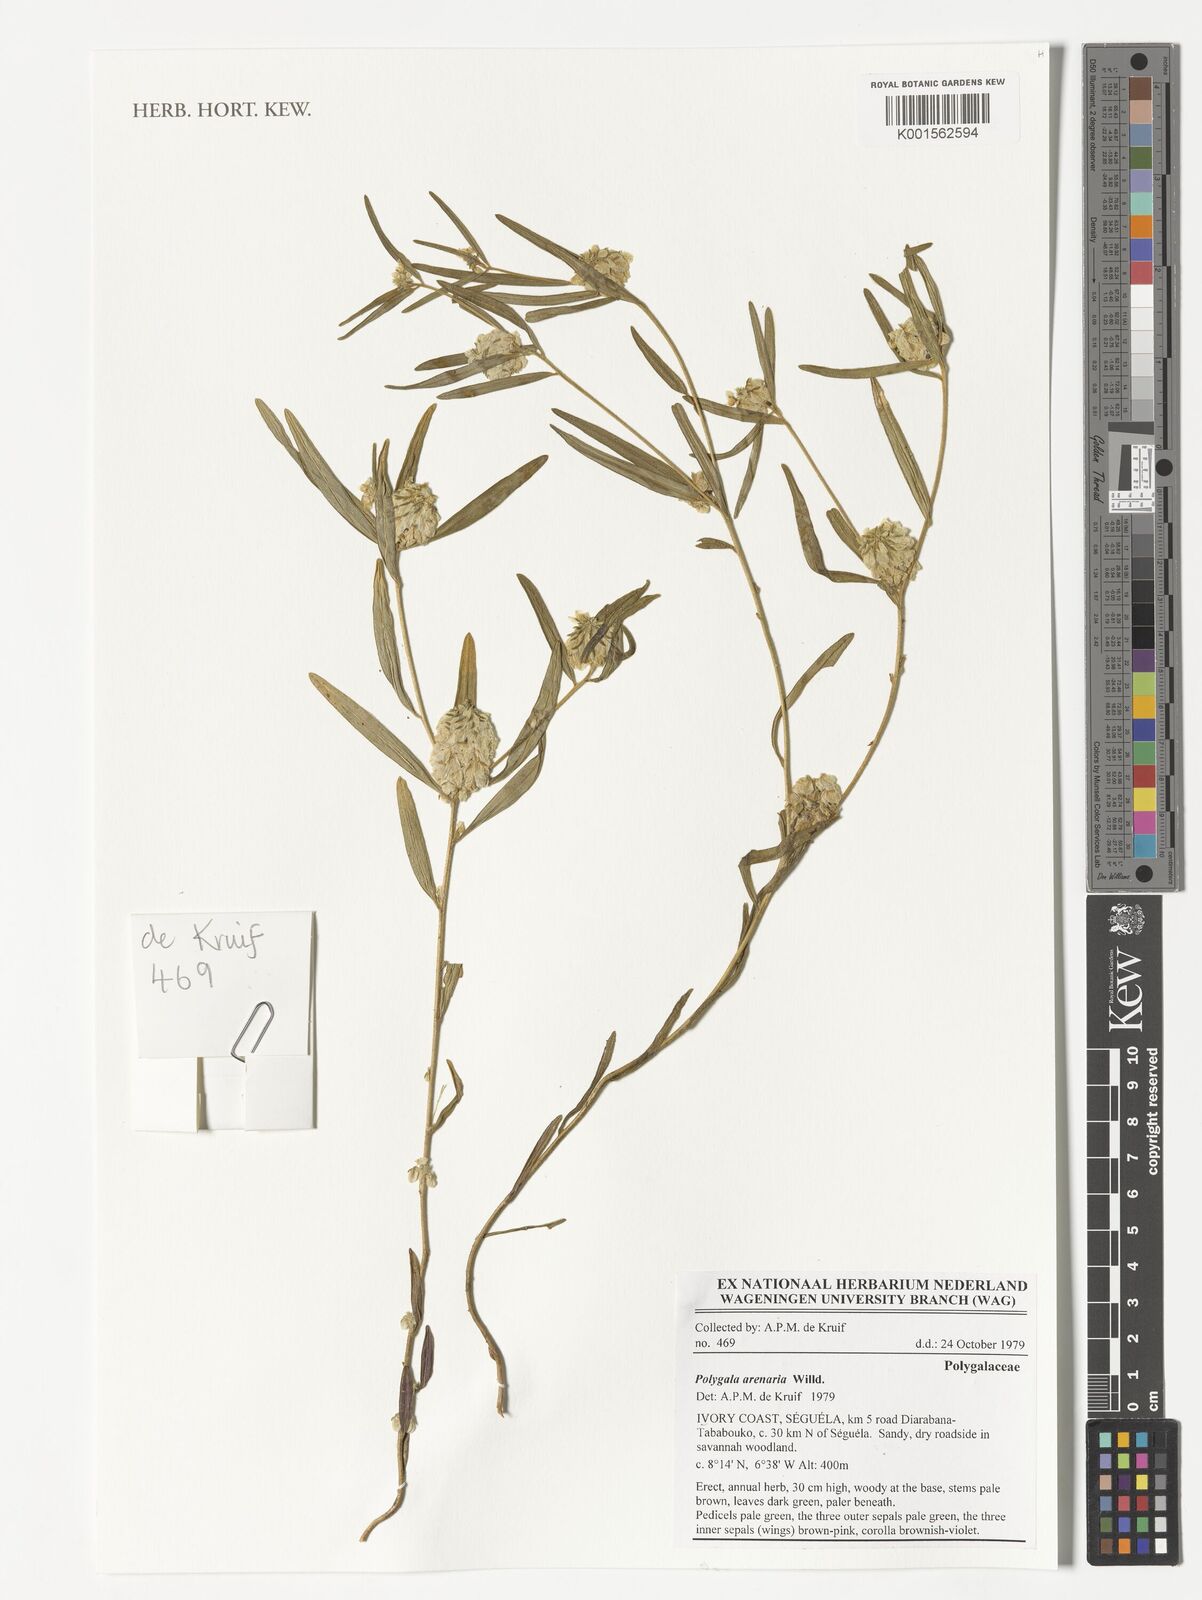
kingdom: Plantae
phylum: Tracheophyta
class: Magnoliopsida
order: Fabales
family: Polygalaceae
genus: Polygala
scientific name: Polygala arenaria
